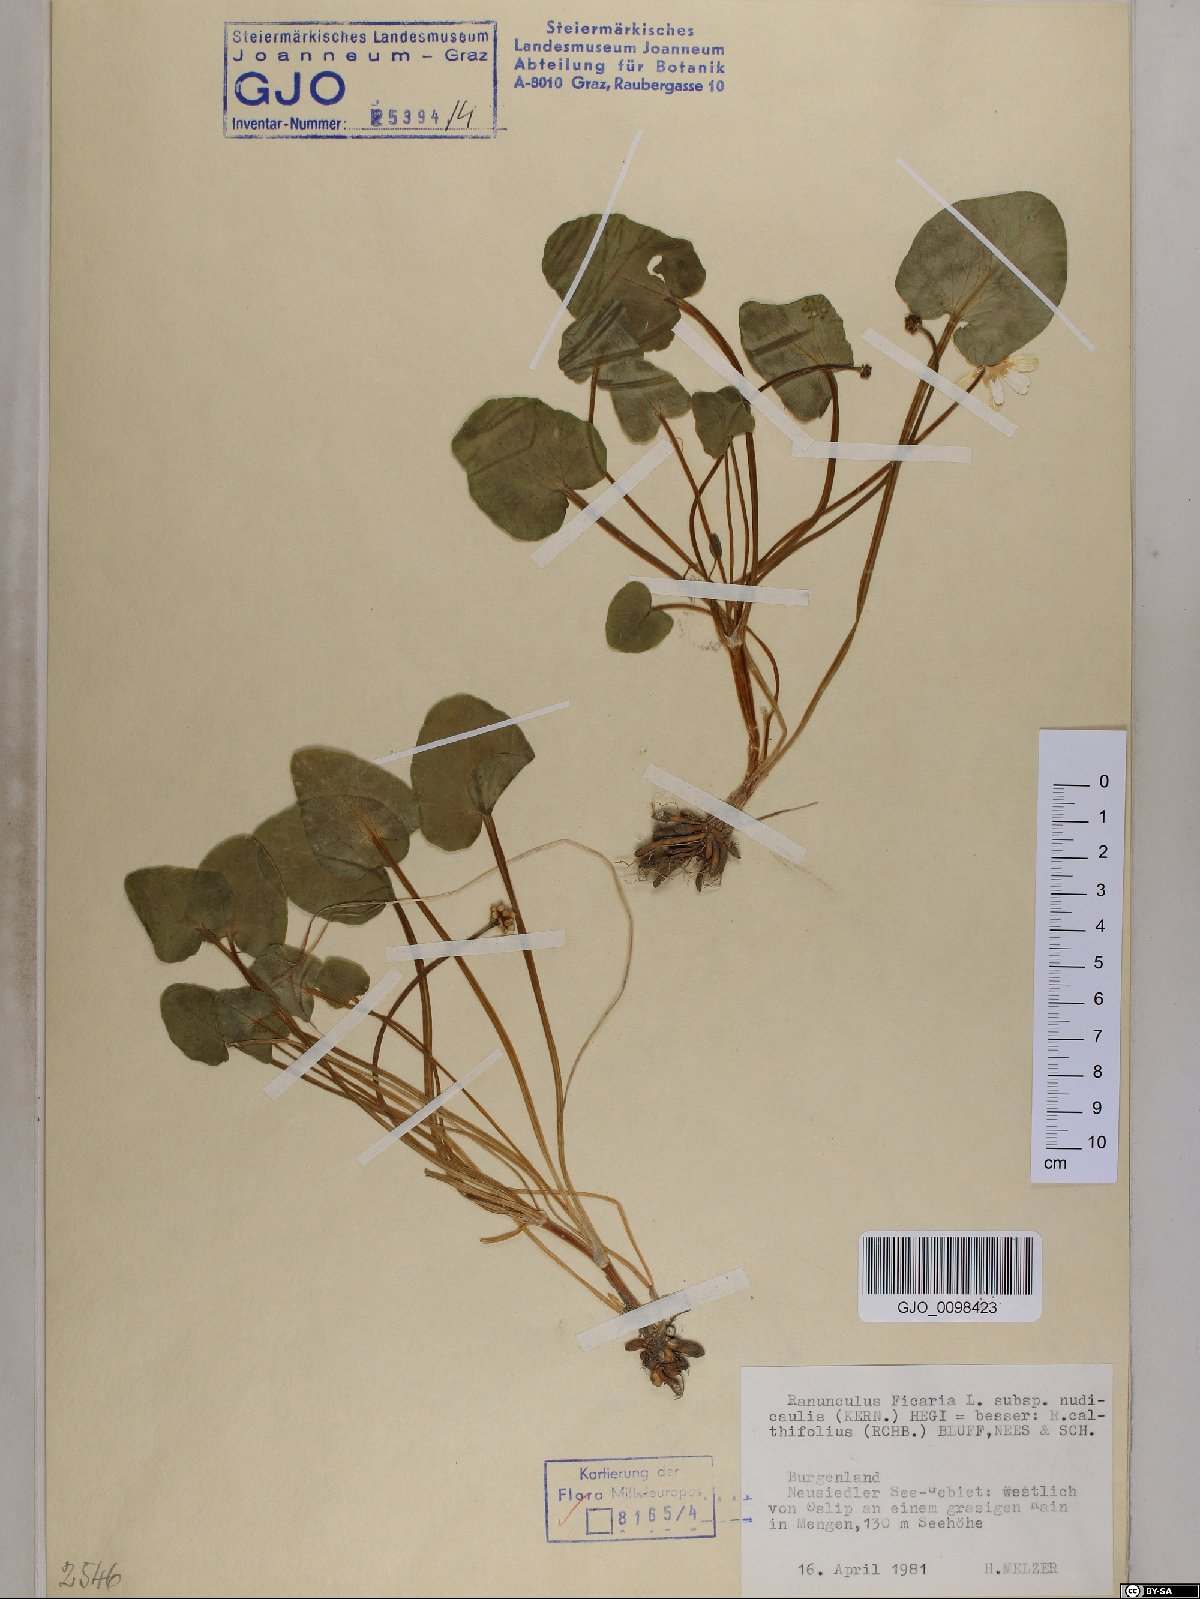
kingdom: Plantae
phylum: Tracheophyta
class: Magnoliopsida
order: Ranunculales
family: Ranunculaceae
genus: Ficaria
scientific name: Ficaria calthifolia
